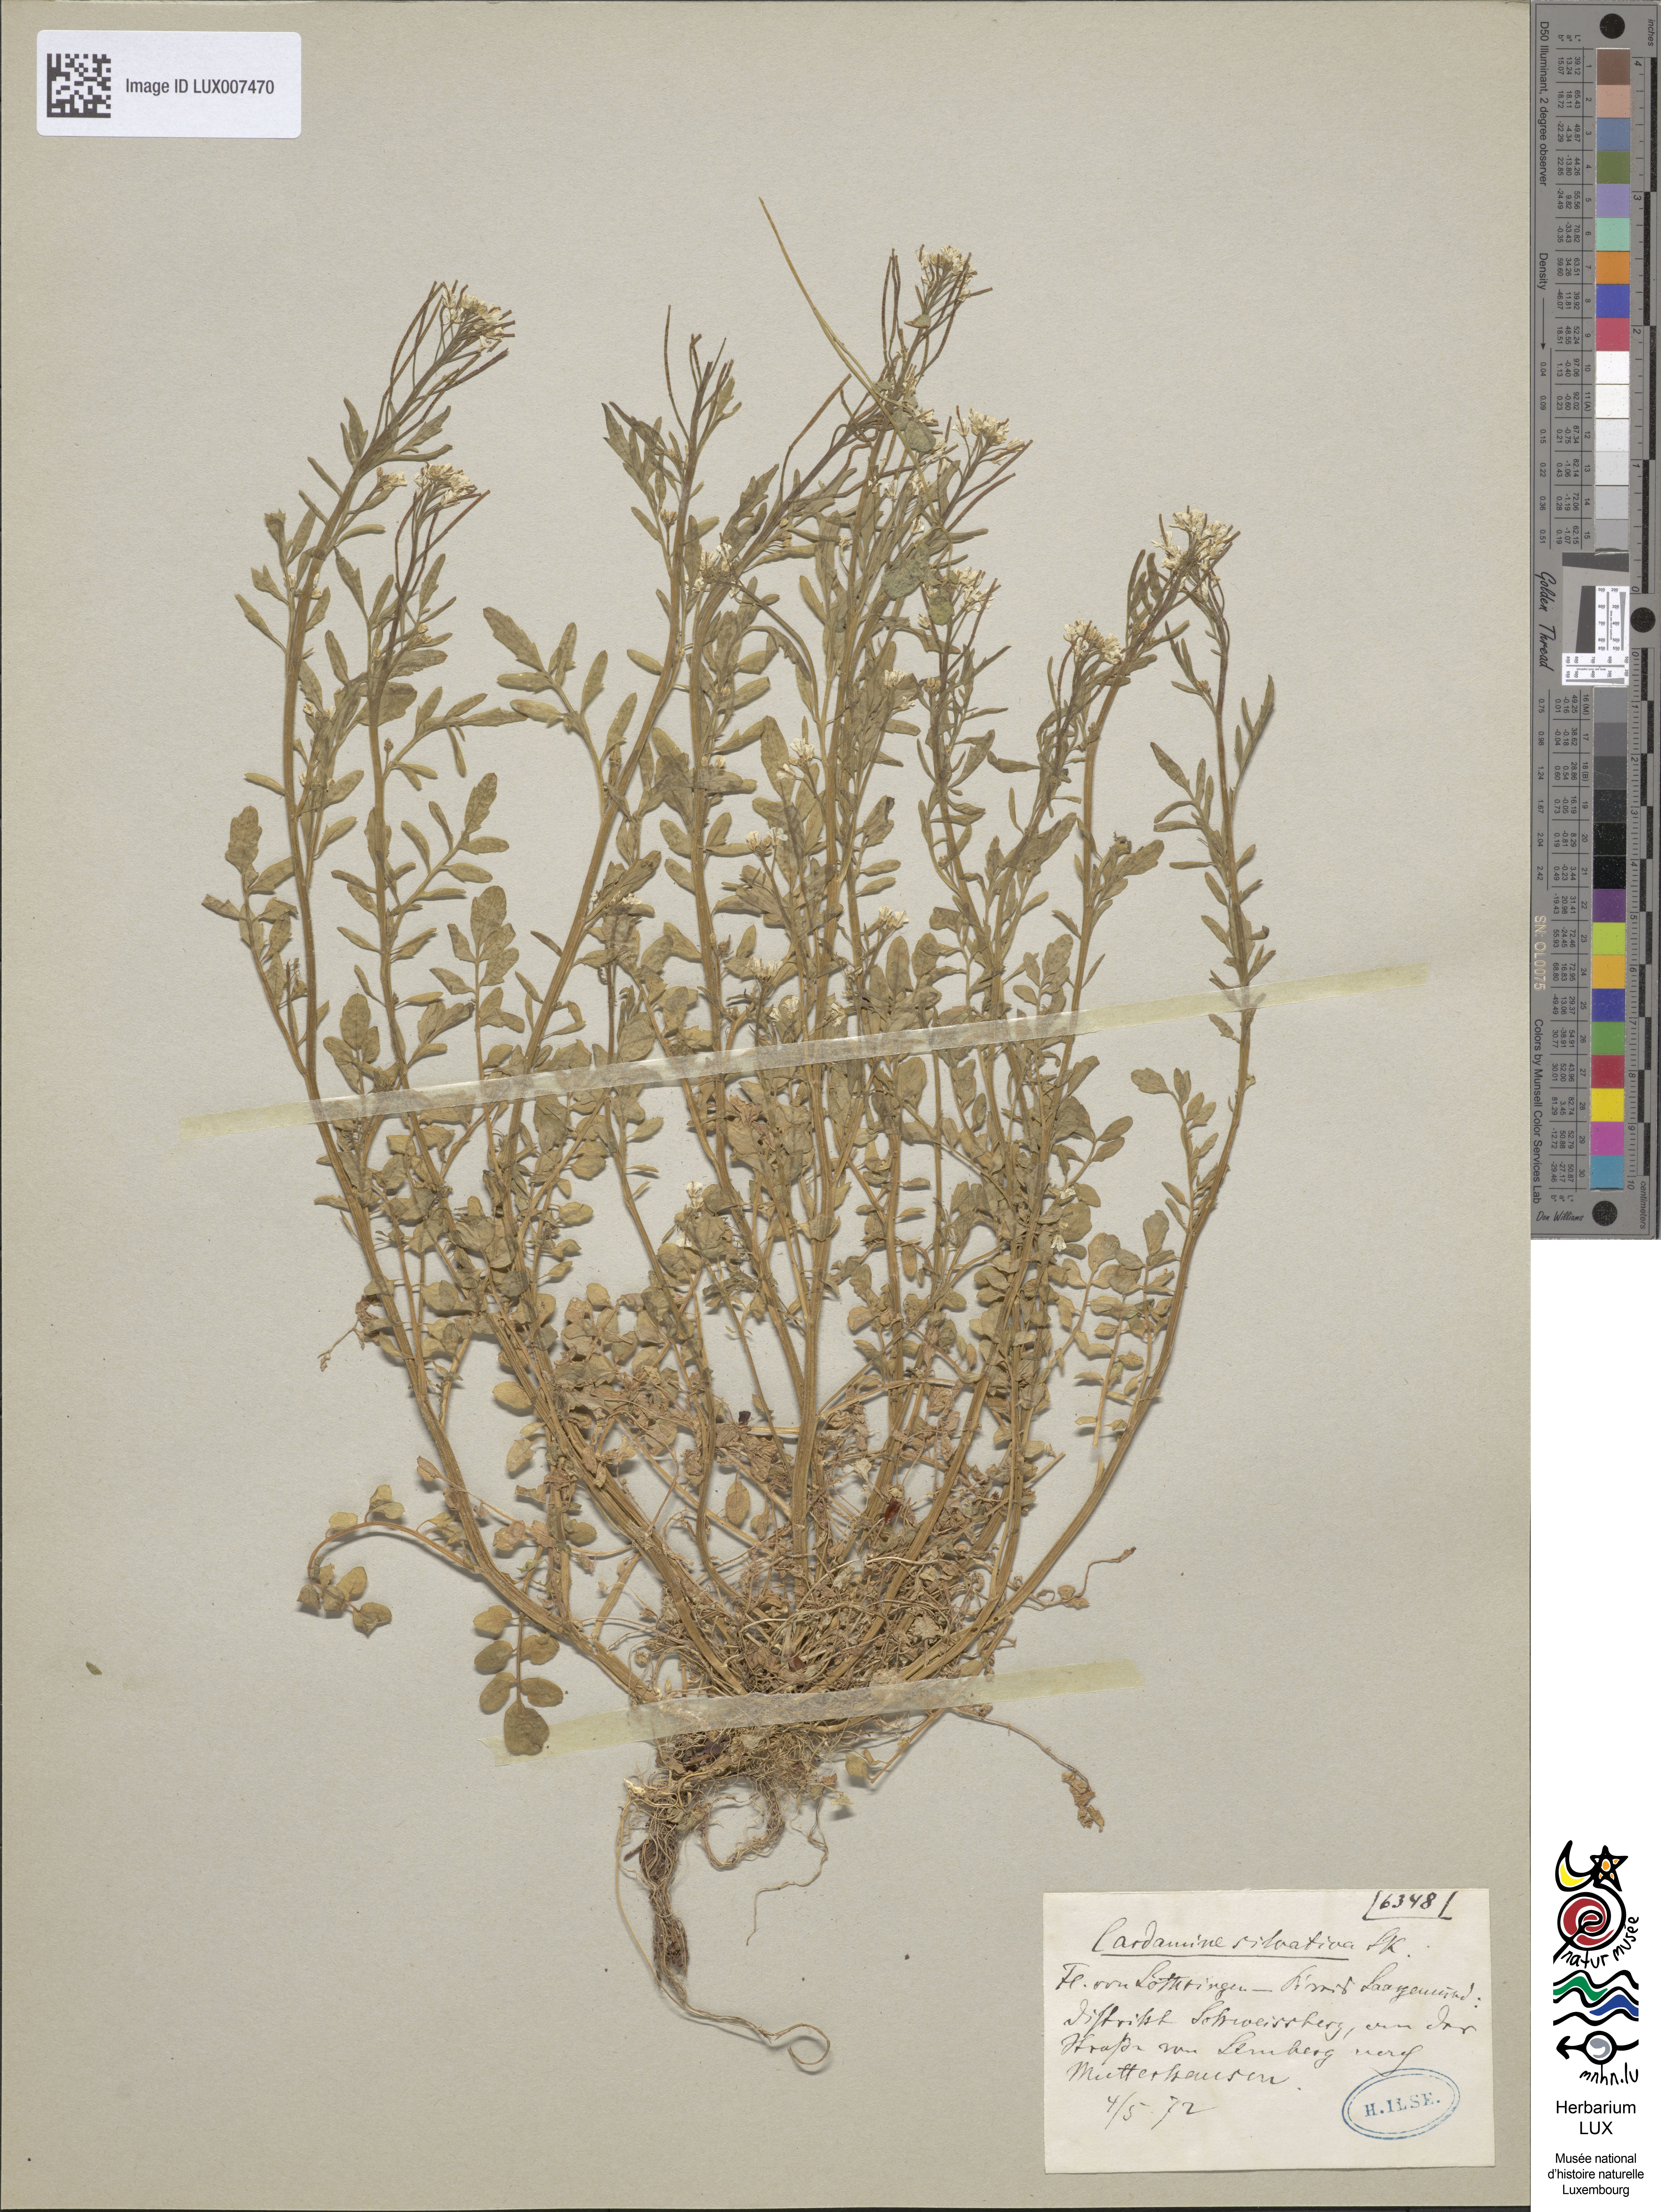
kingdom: Plantae
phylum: Tracheophyta
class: Magnoliopsida
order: Brassicales
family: Brassicaceae
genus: Cardamine
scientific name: Cardamine flexuosa
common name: Woodland bittercress
